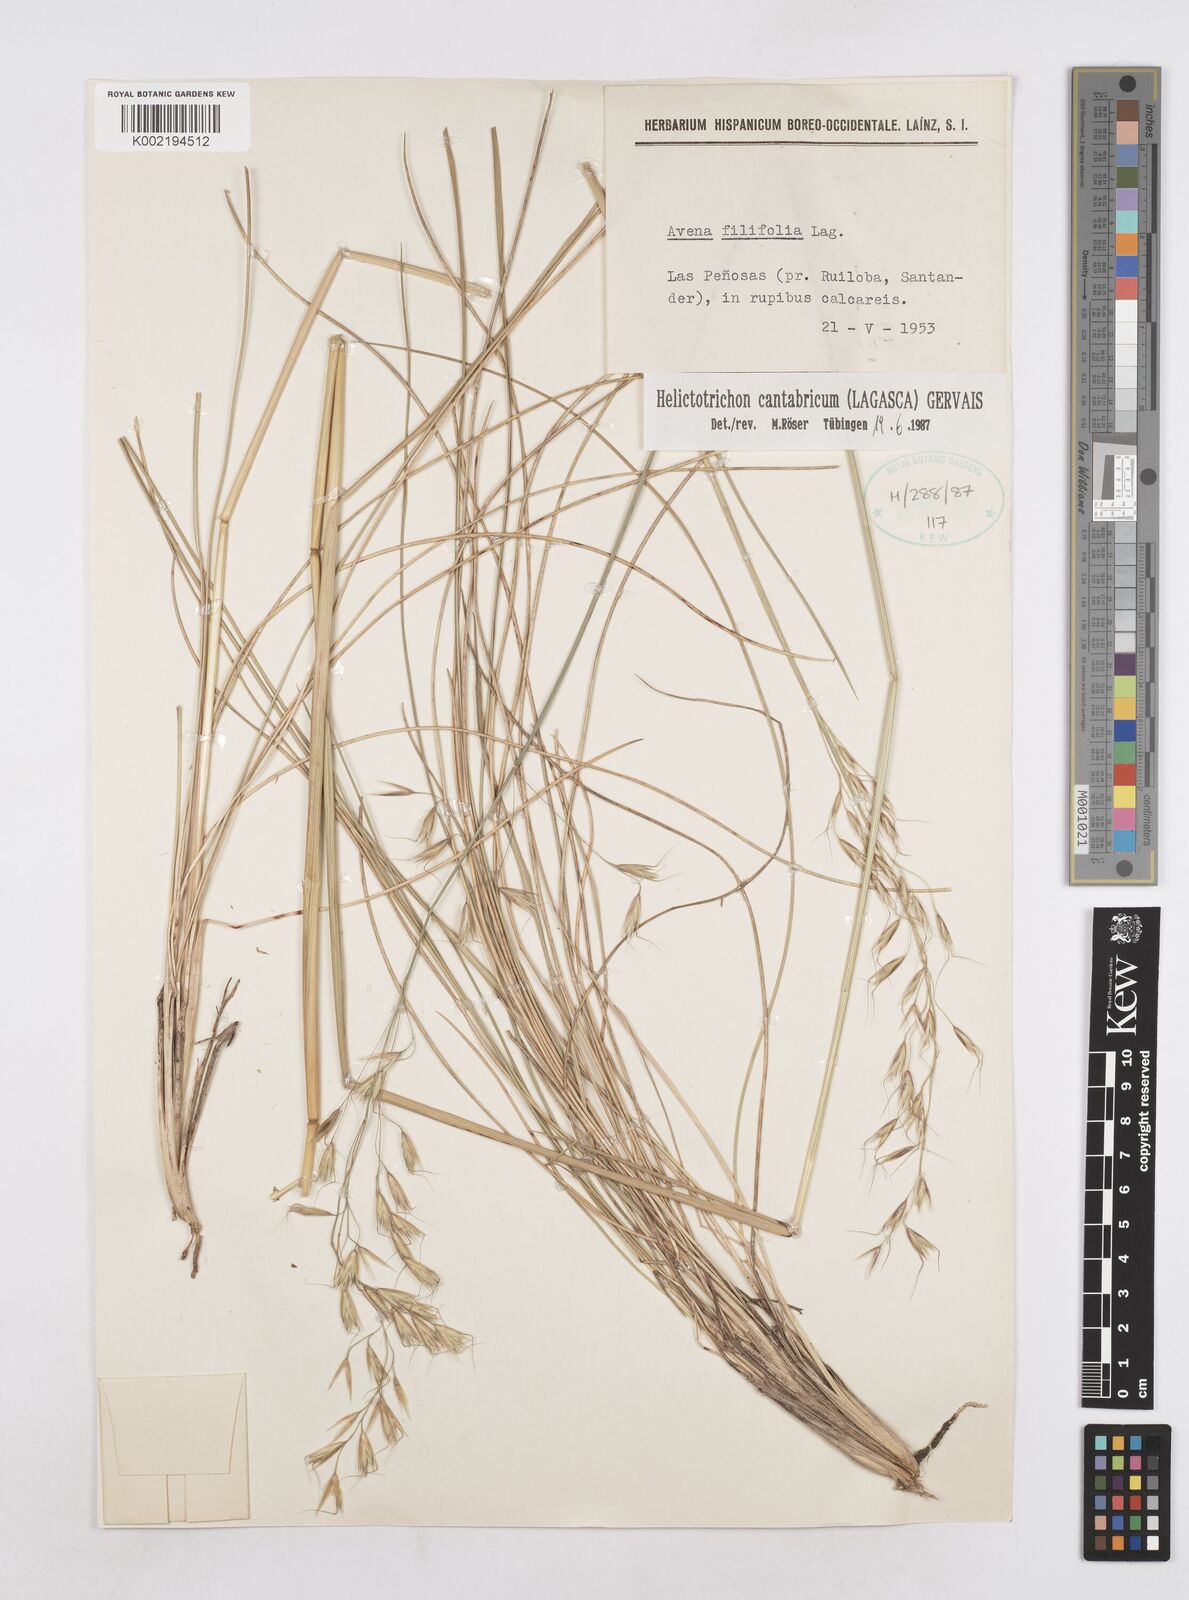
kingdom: Plantae
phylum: Tracheophyta
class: Liliopsida
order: Poales
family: Poaceae
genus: Helictotrichon
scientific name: Helictotrichon cantabricum
